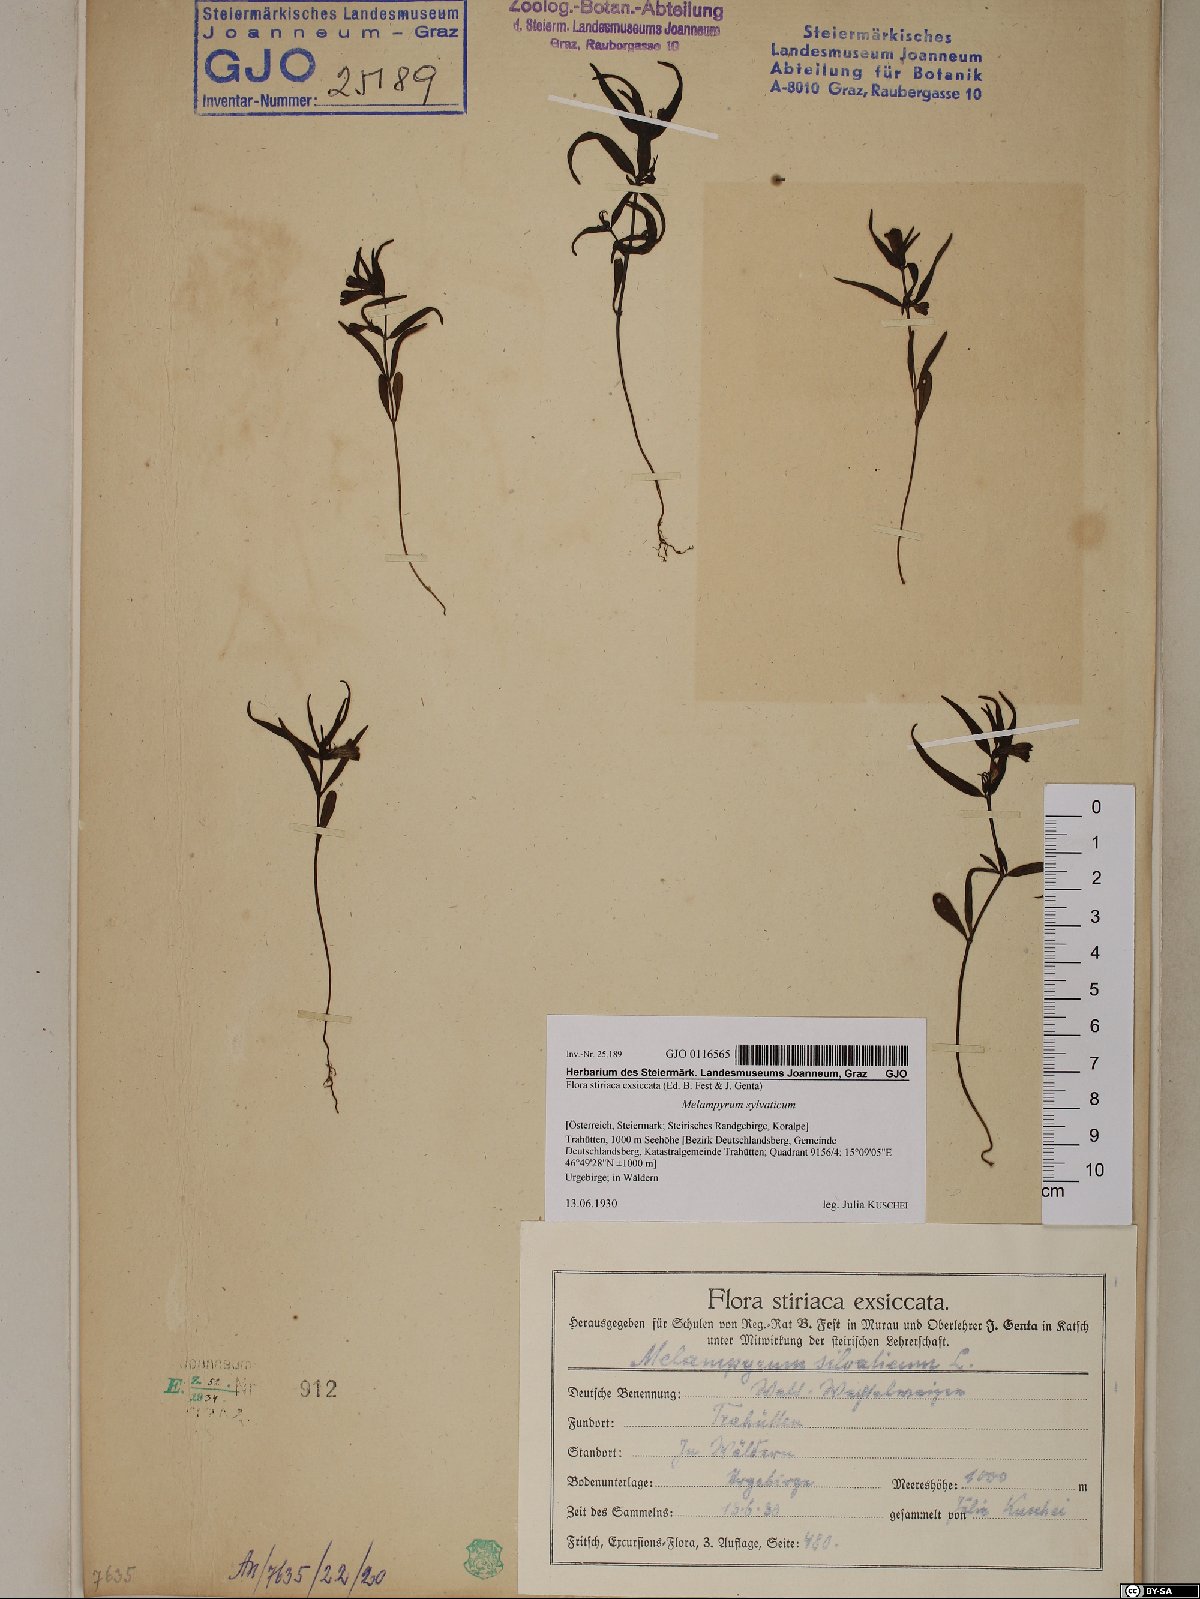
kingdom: Plantae
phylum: Tracheophyta
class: Magnoliopsida
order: Lamiales
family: Orobanchaceae
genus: Melampyrum
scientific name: Melampyrum sylvaticum
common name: Small cow-wheat
